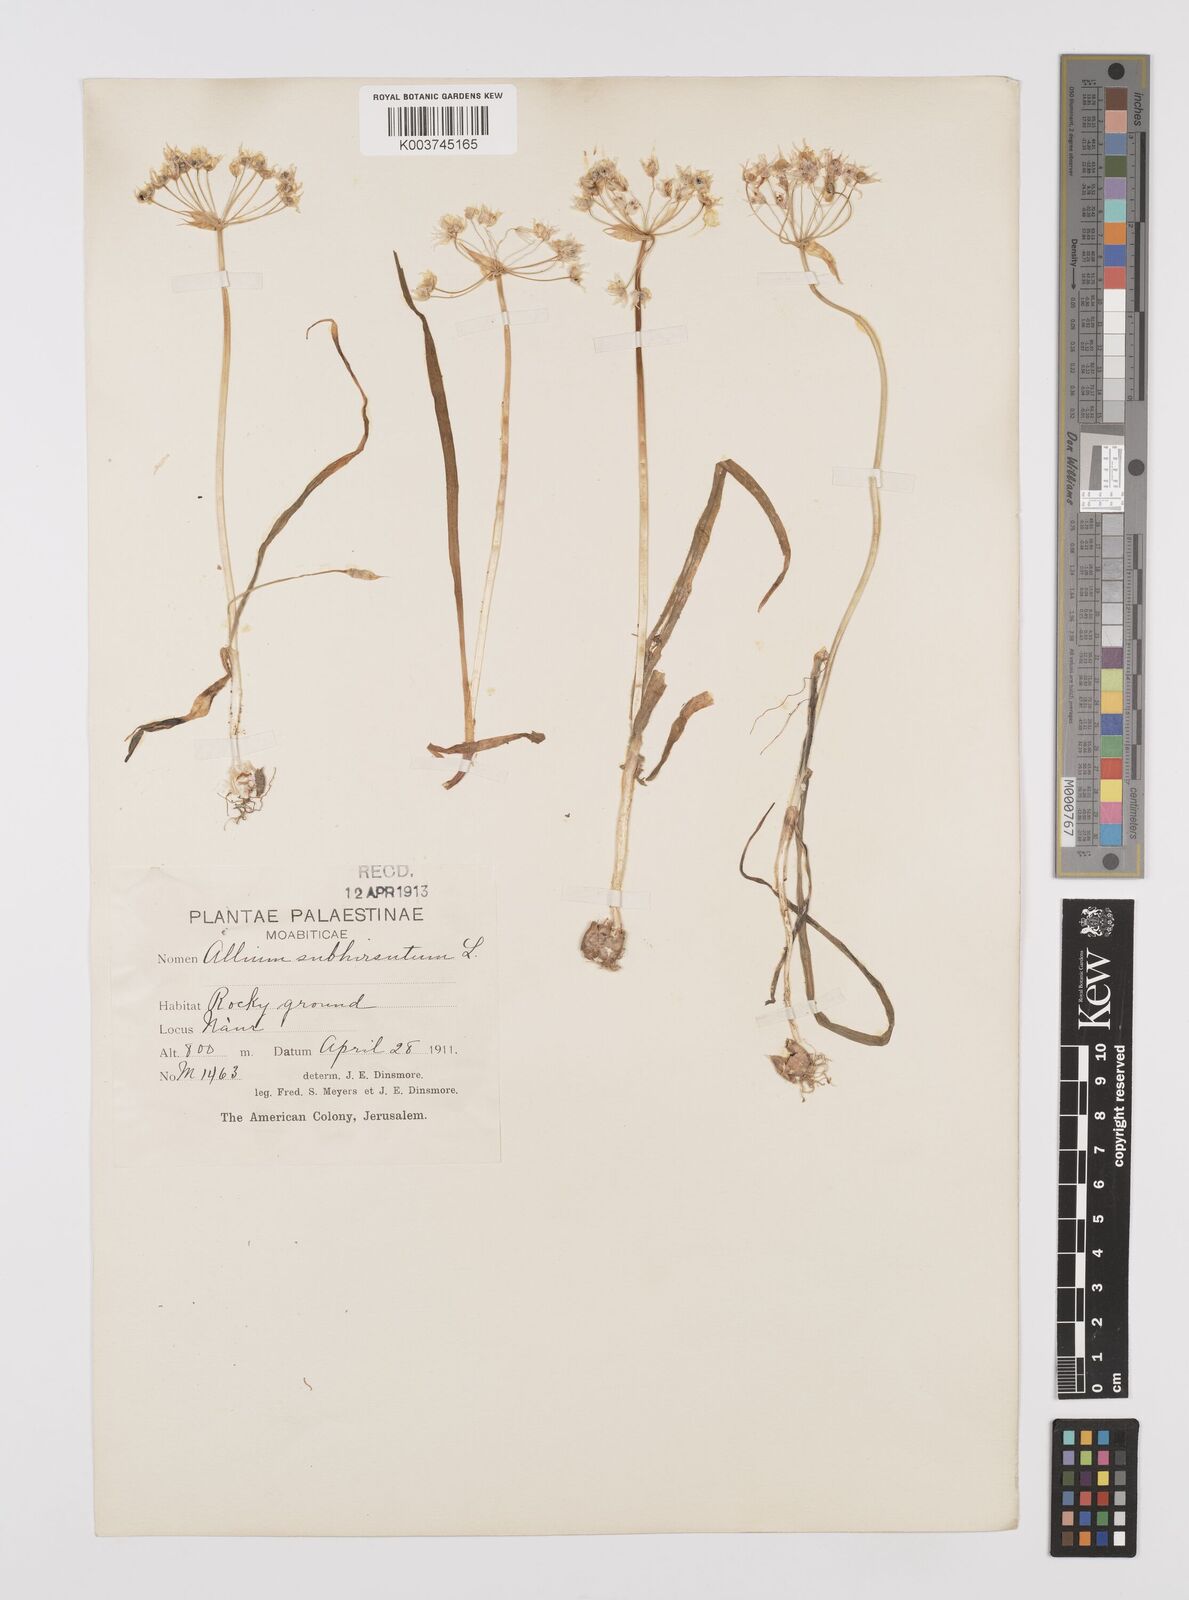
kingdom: Plantae
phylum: Tracheophyta
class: Liliopsida
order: Asparagales
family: Amaryllidaceae
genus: Allium
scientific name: Allium subhirsutum
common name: Hairy garlic
